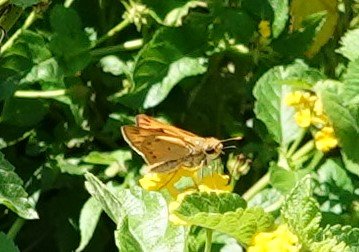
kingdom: Animalia
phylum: Arthropoda
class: Insecta
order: Lepidoptera
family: Hesperiidae
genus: Hylephila
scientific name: Hylephila phyleus
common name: Fiery Skipper
